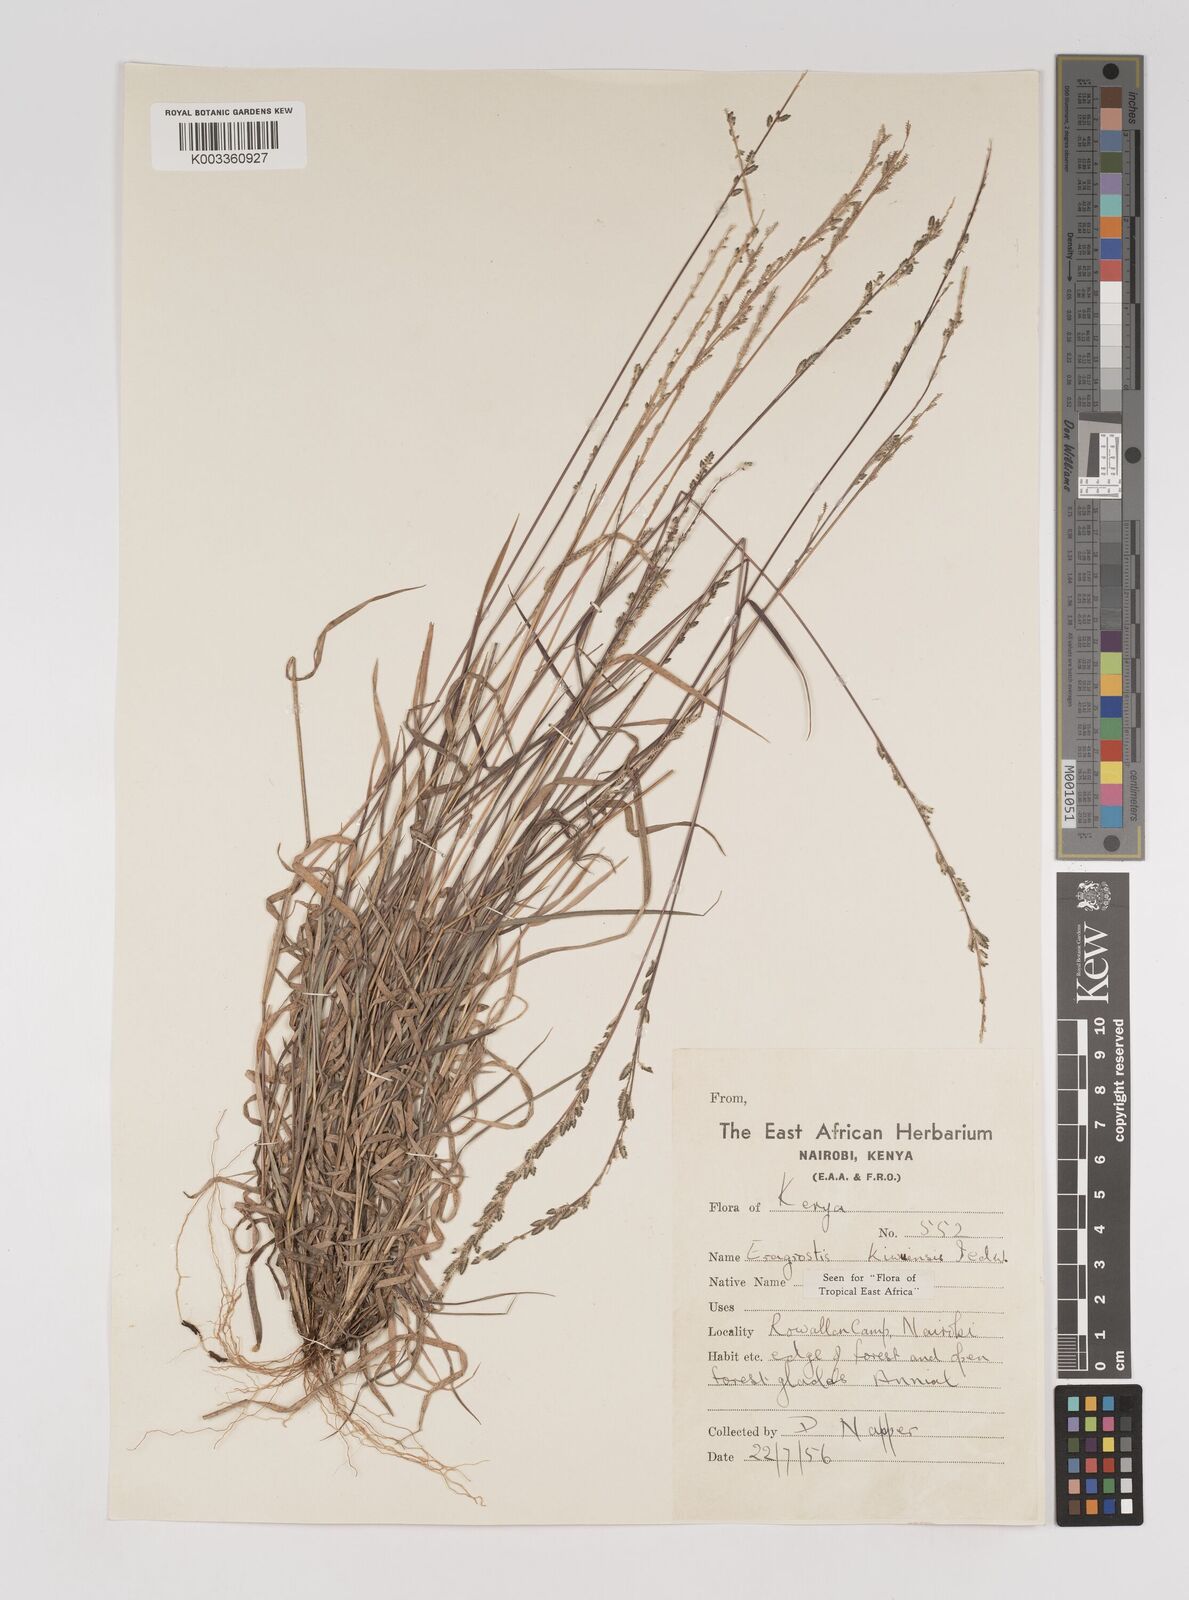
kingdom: Plantae
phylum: Tracheophyta
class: Liliopsida
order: Poales
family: Poaceae
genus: Eragrostis
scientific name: Eragrostis schweinfurthii
